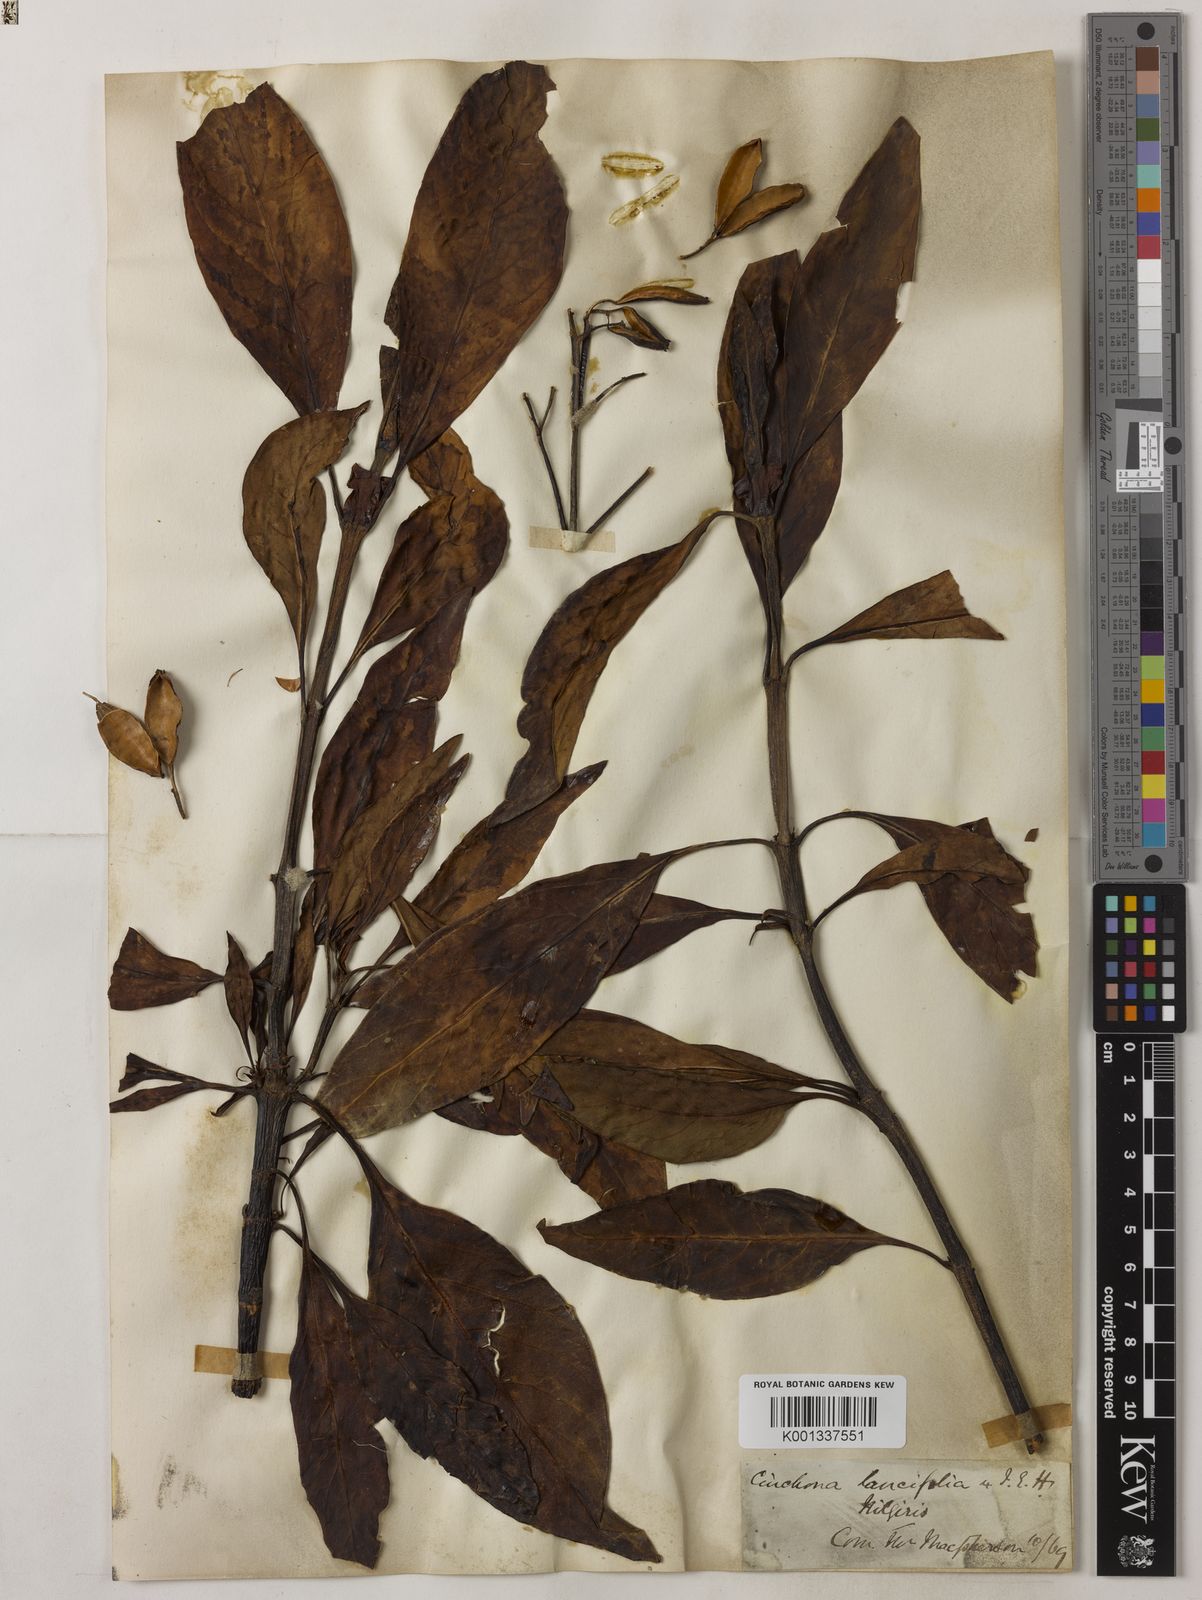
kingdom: Plantae
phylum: Tracheophyta
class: Magnoliopsida
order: Gentianales
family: Rubiaceae
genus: Cinchona
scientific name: Cinchona
